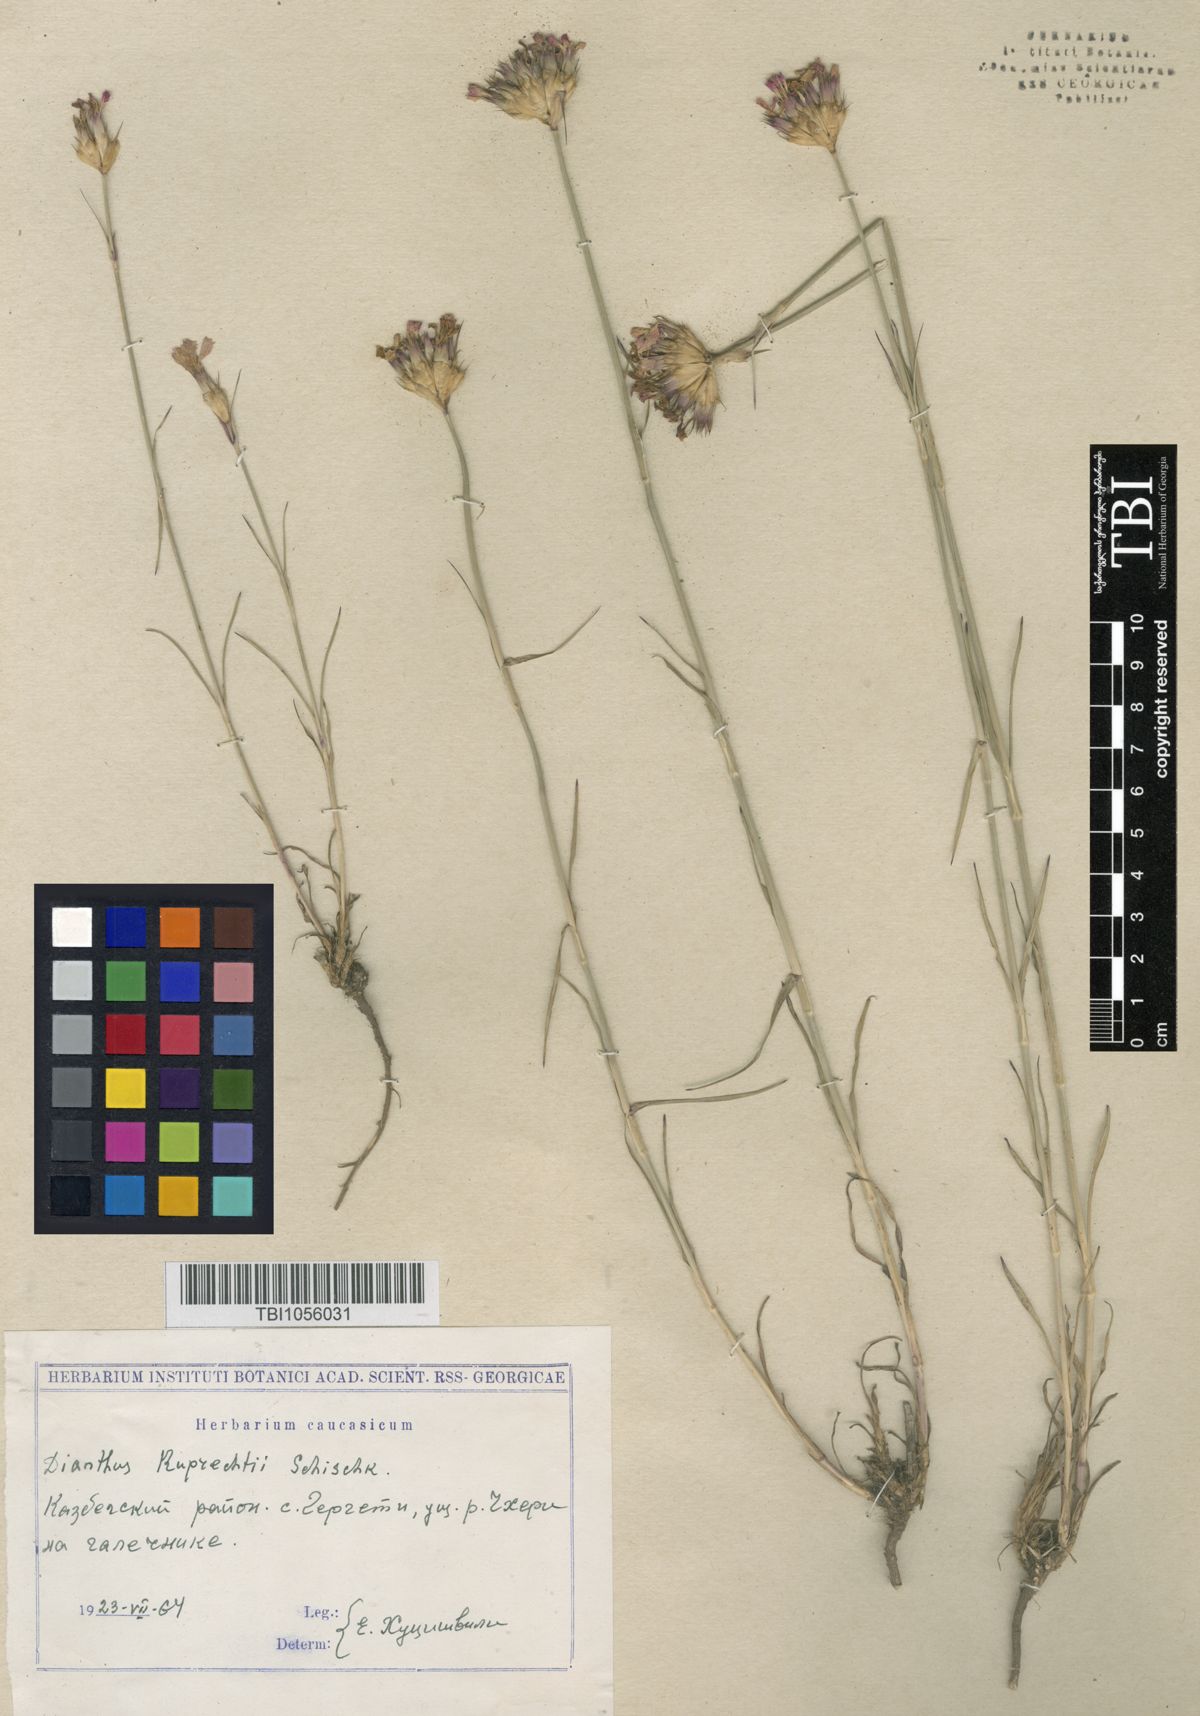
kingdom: Plantae
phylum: Tracheophyta
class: Magnoliopsida
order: Caryophyllales
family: Caryophyllaceae
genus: Dianthus
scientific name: Dianthus ruprechtii
